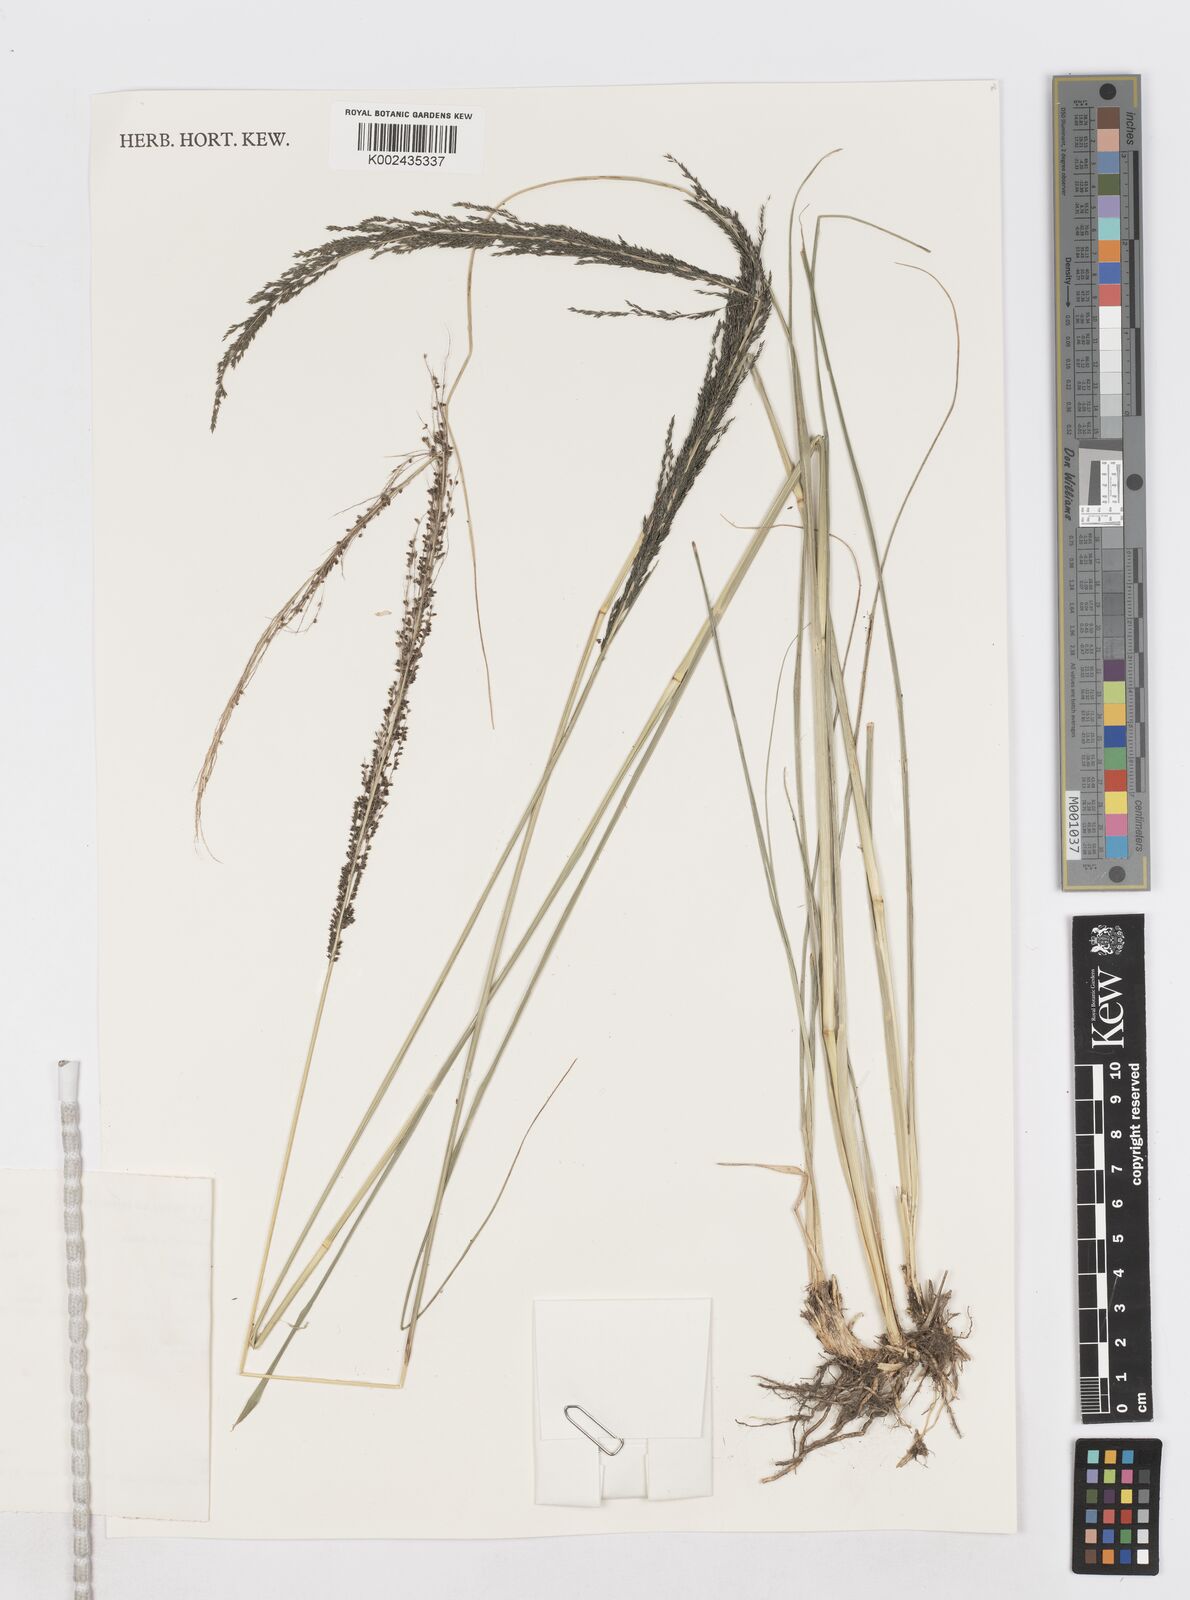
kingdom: Plantae
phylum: Tracheophyta
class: Liliopsida
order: Poales
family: Poaceae
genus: Sporobolus
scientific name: Sporobolus pyramidalis
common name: West indian dropseed
